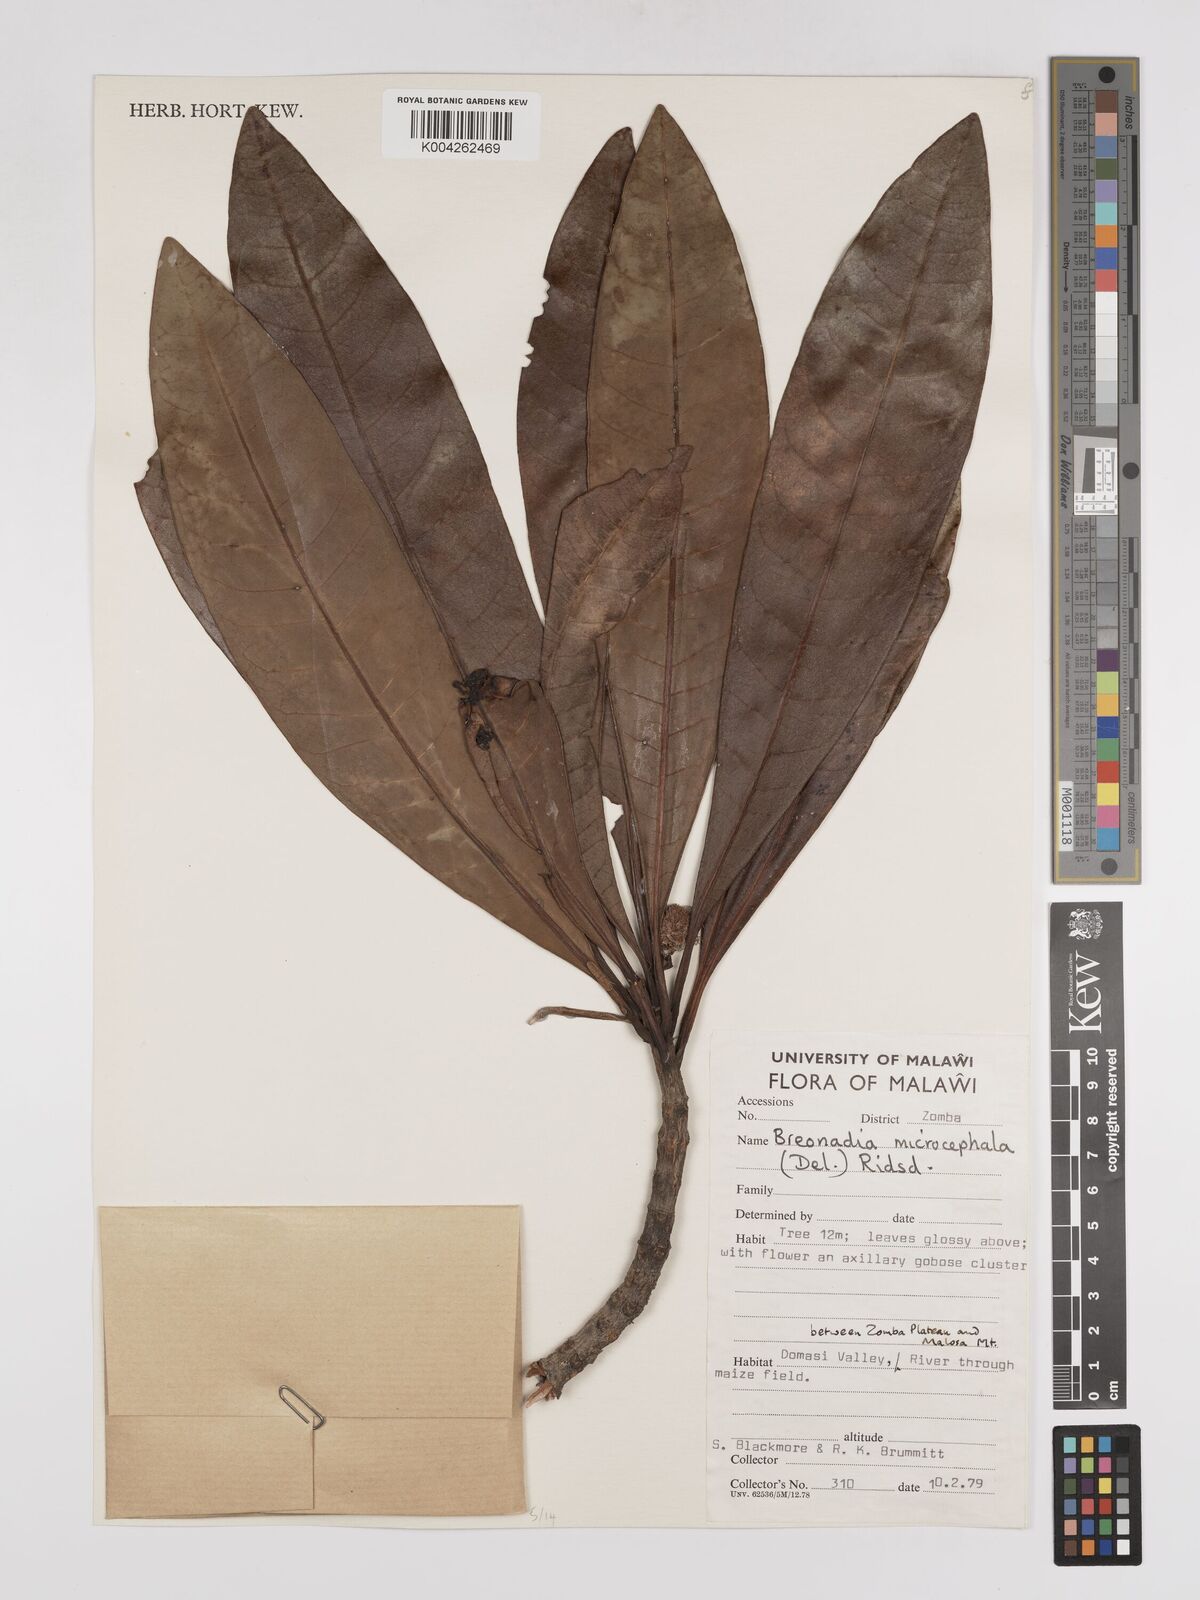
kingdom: Plantae
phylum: Tracheophyta
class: Magnoliopsida
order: Gentianales
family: Rubiaceae
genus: Breonadia
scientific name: Breonadia salicina
